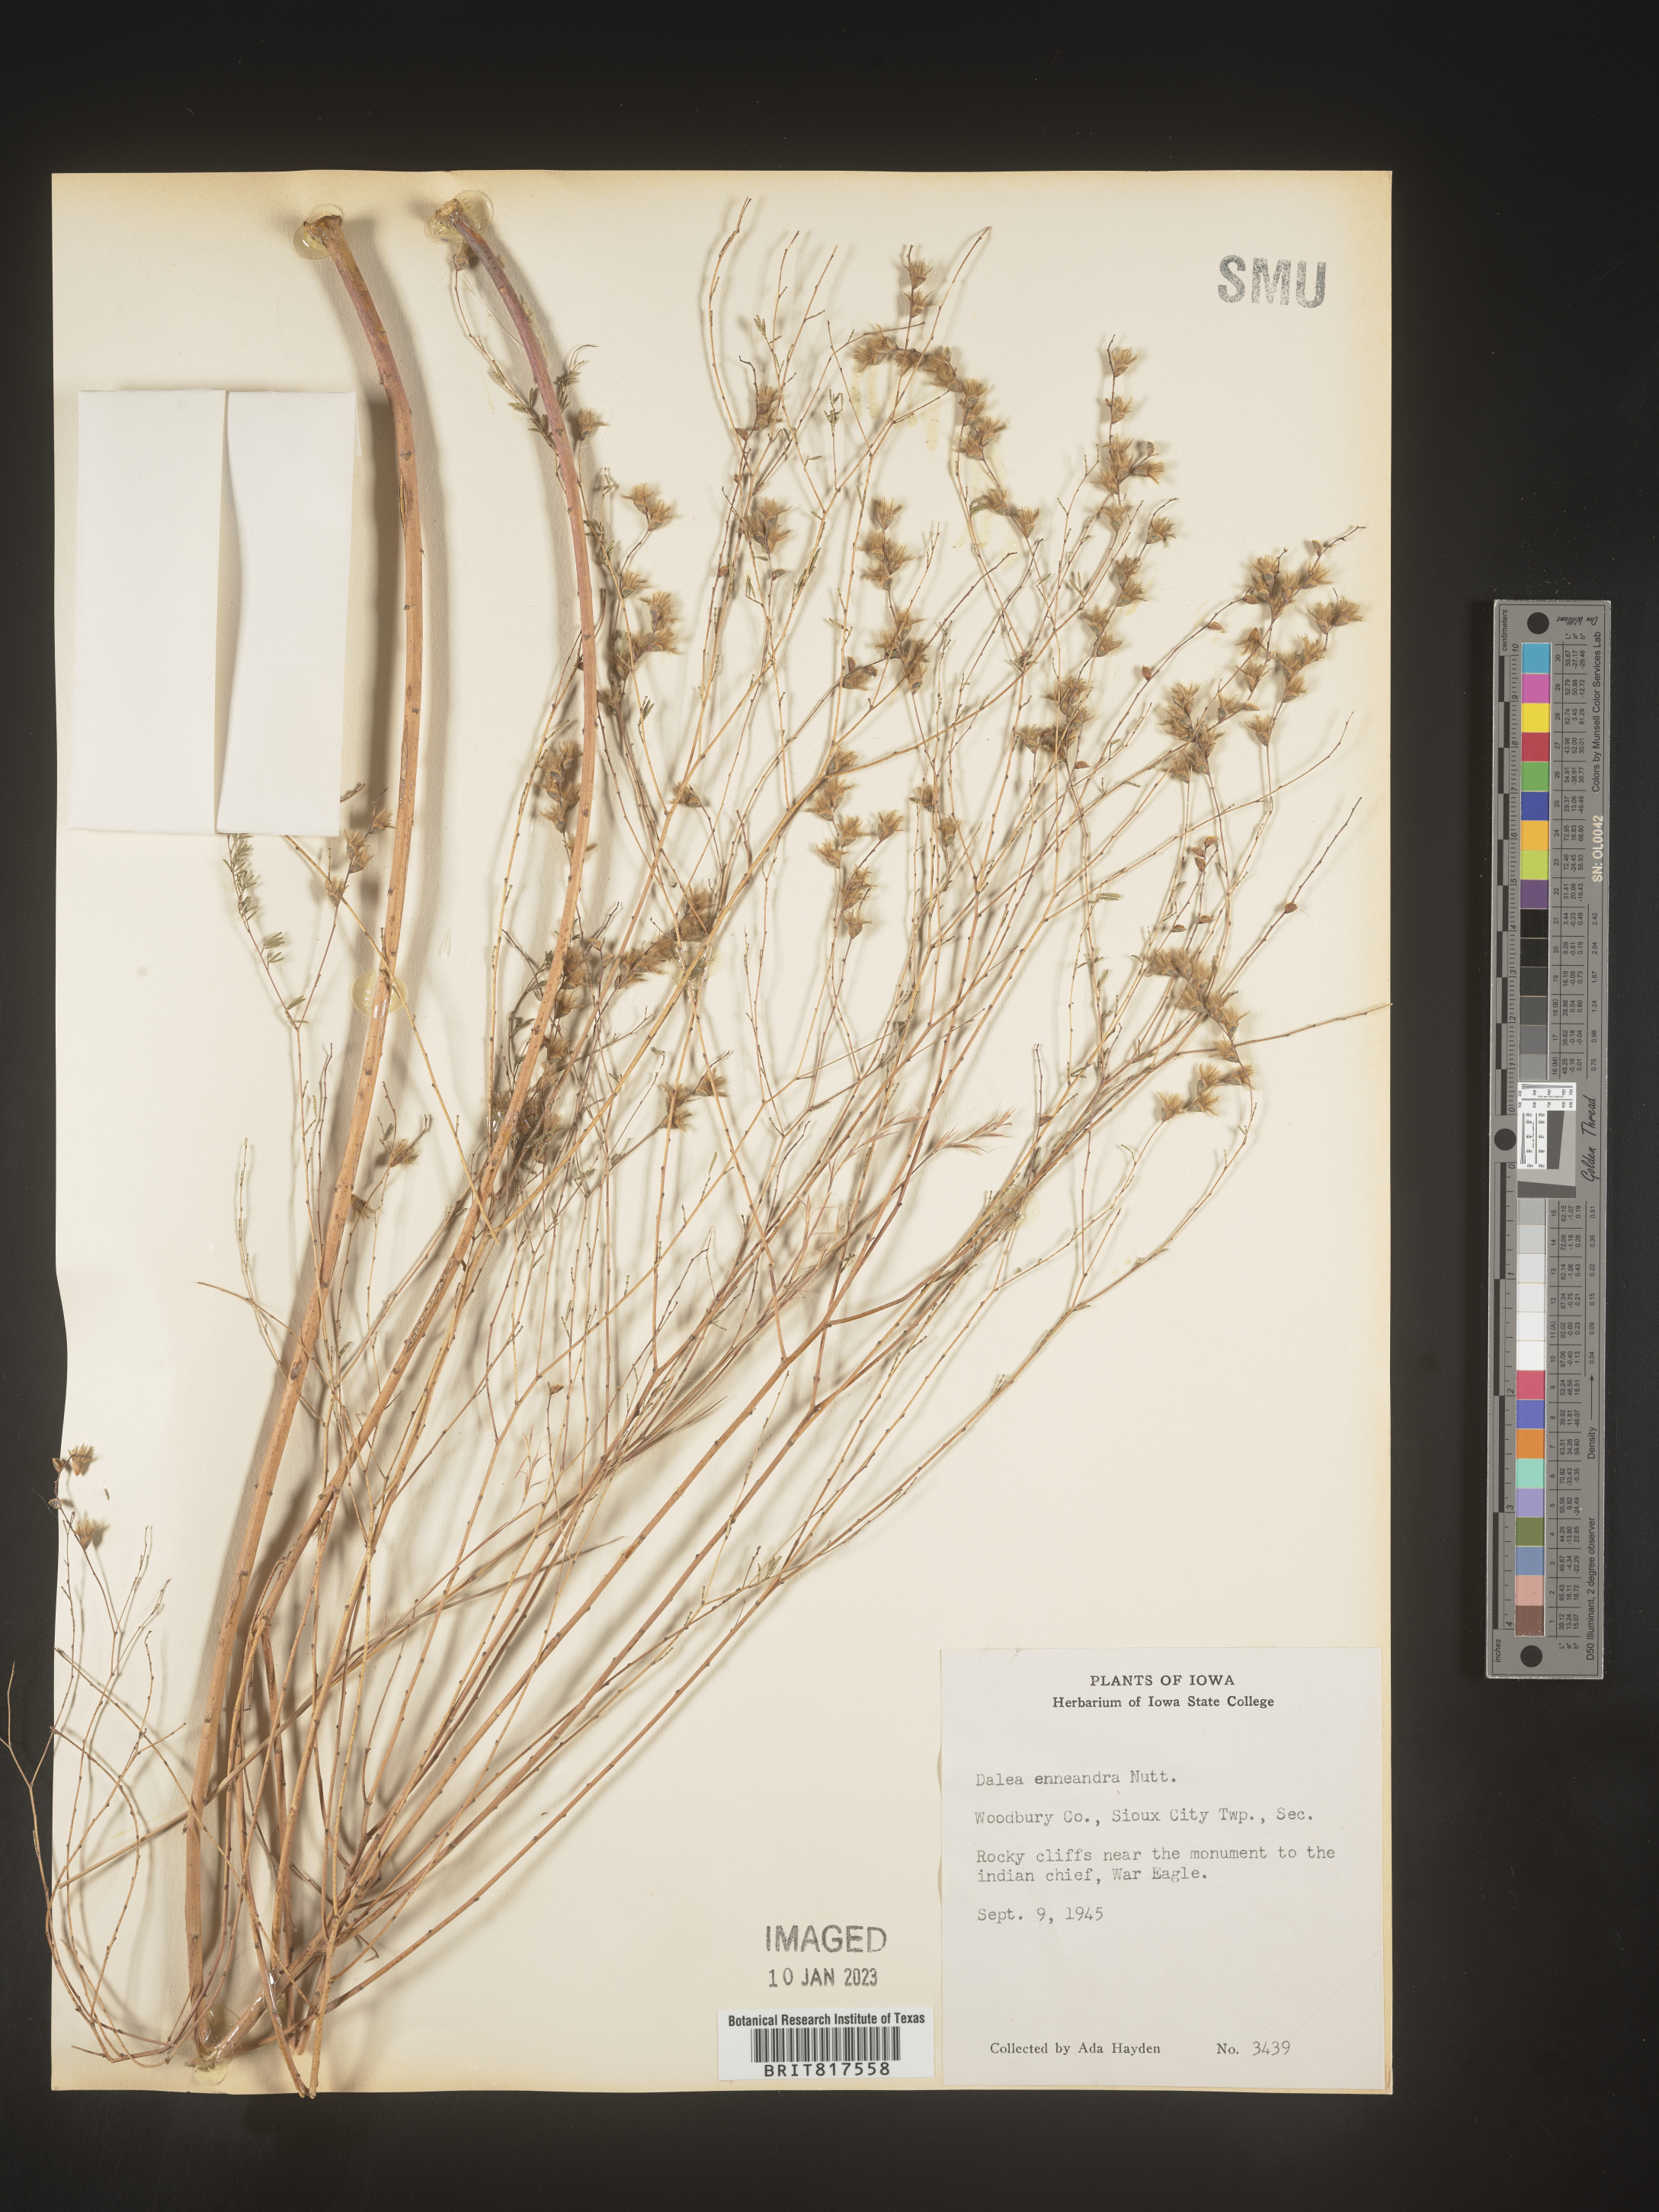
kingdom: Plantae
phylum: Tracheophyta
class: Magnoliopsida
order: Fabales
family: Fabaceae
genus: Dalea
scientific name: Dalea hegewischiana
